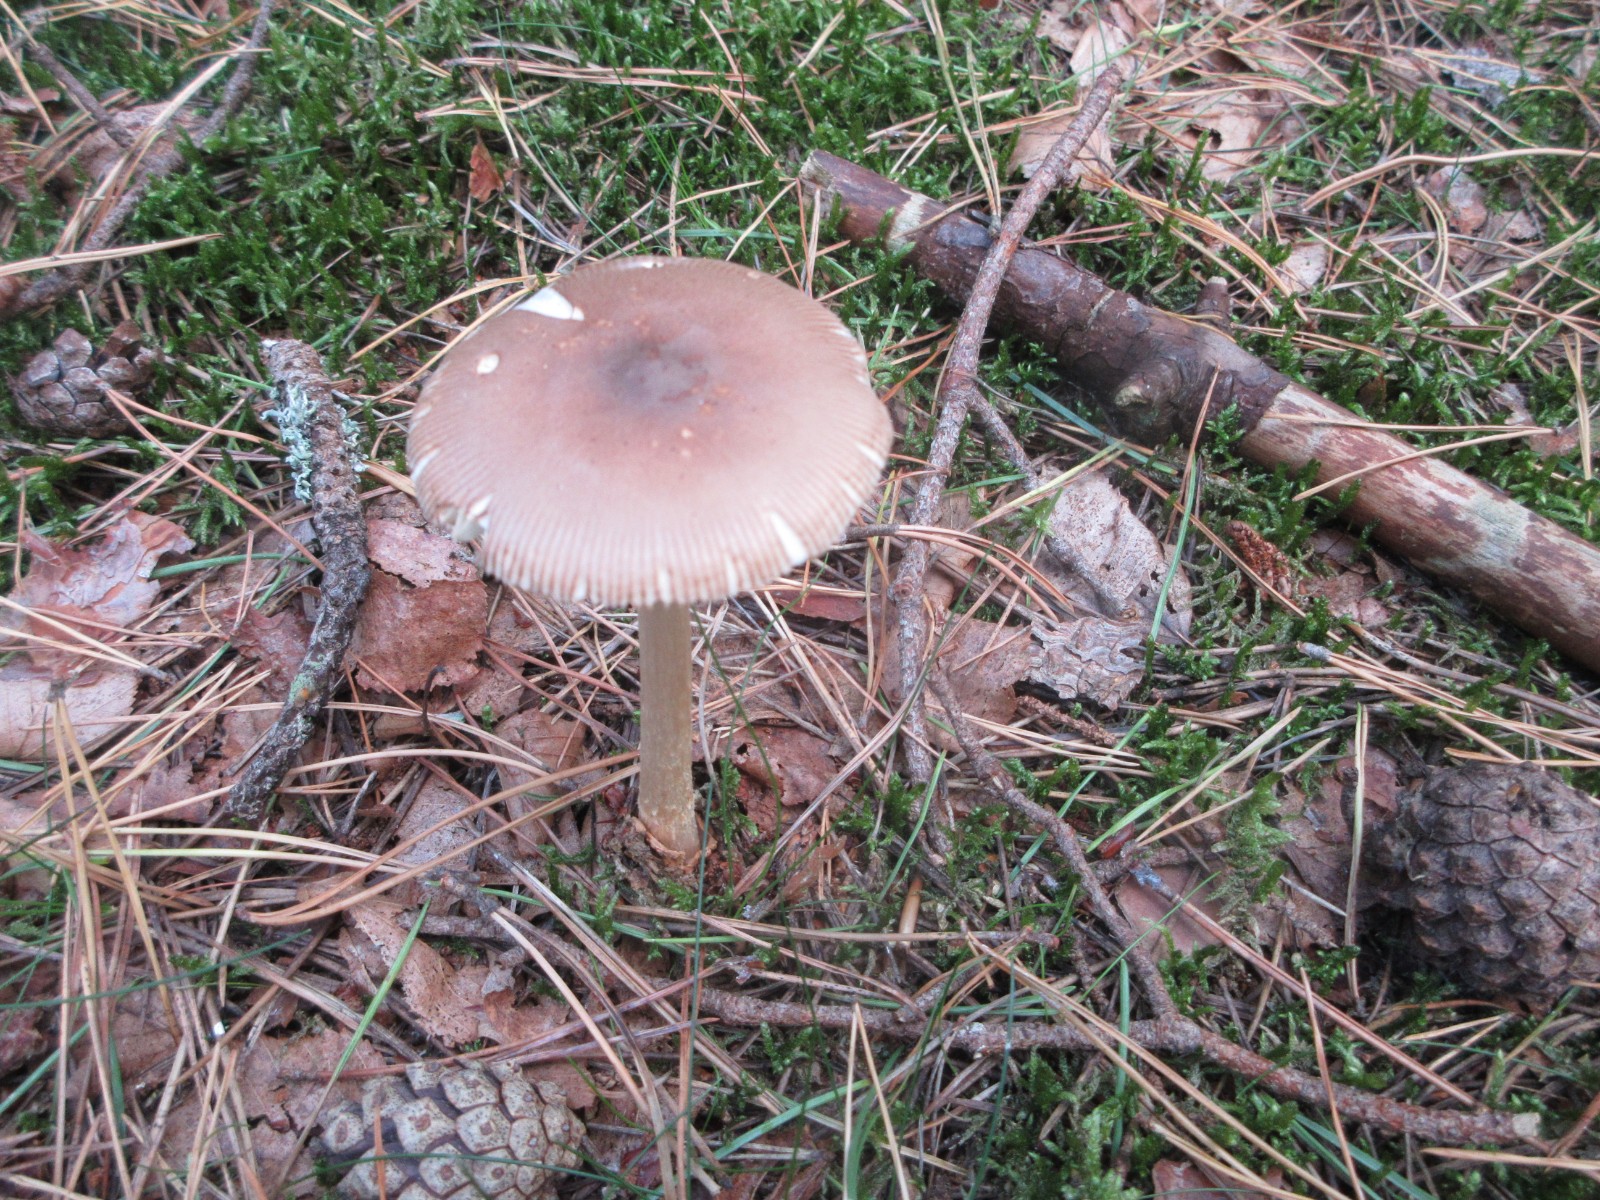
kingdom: Fungi
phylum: Basidiomycota
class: Agaricomycetes
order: Agaricales
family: Amanitaceae
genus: Amanita
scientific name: Amanita fulva
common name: brun kam-fluesvamp
